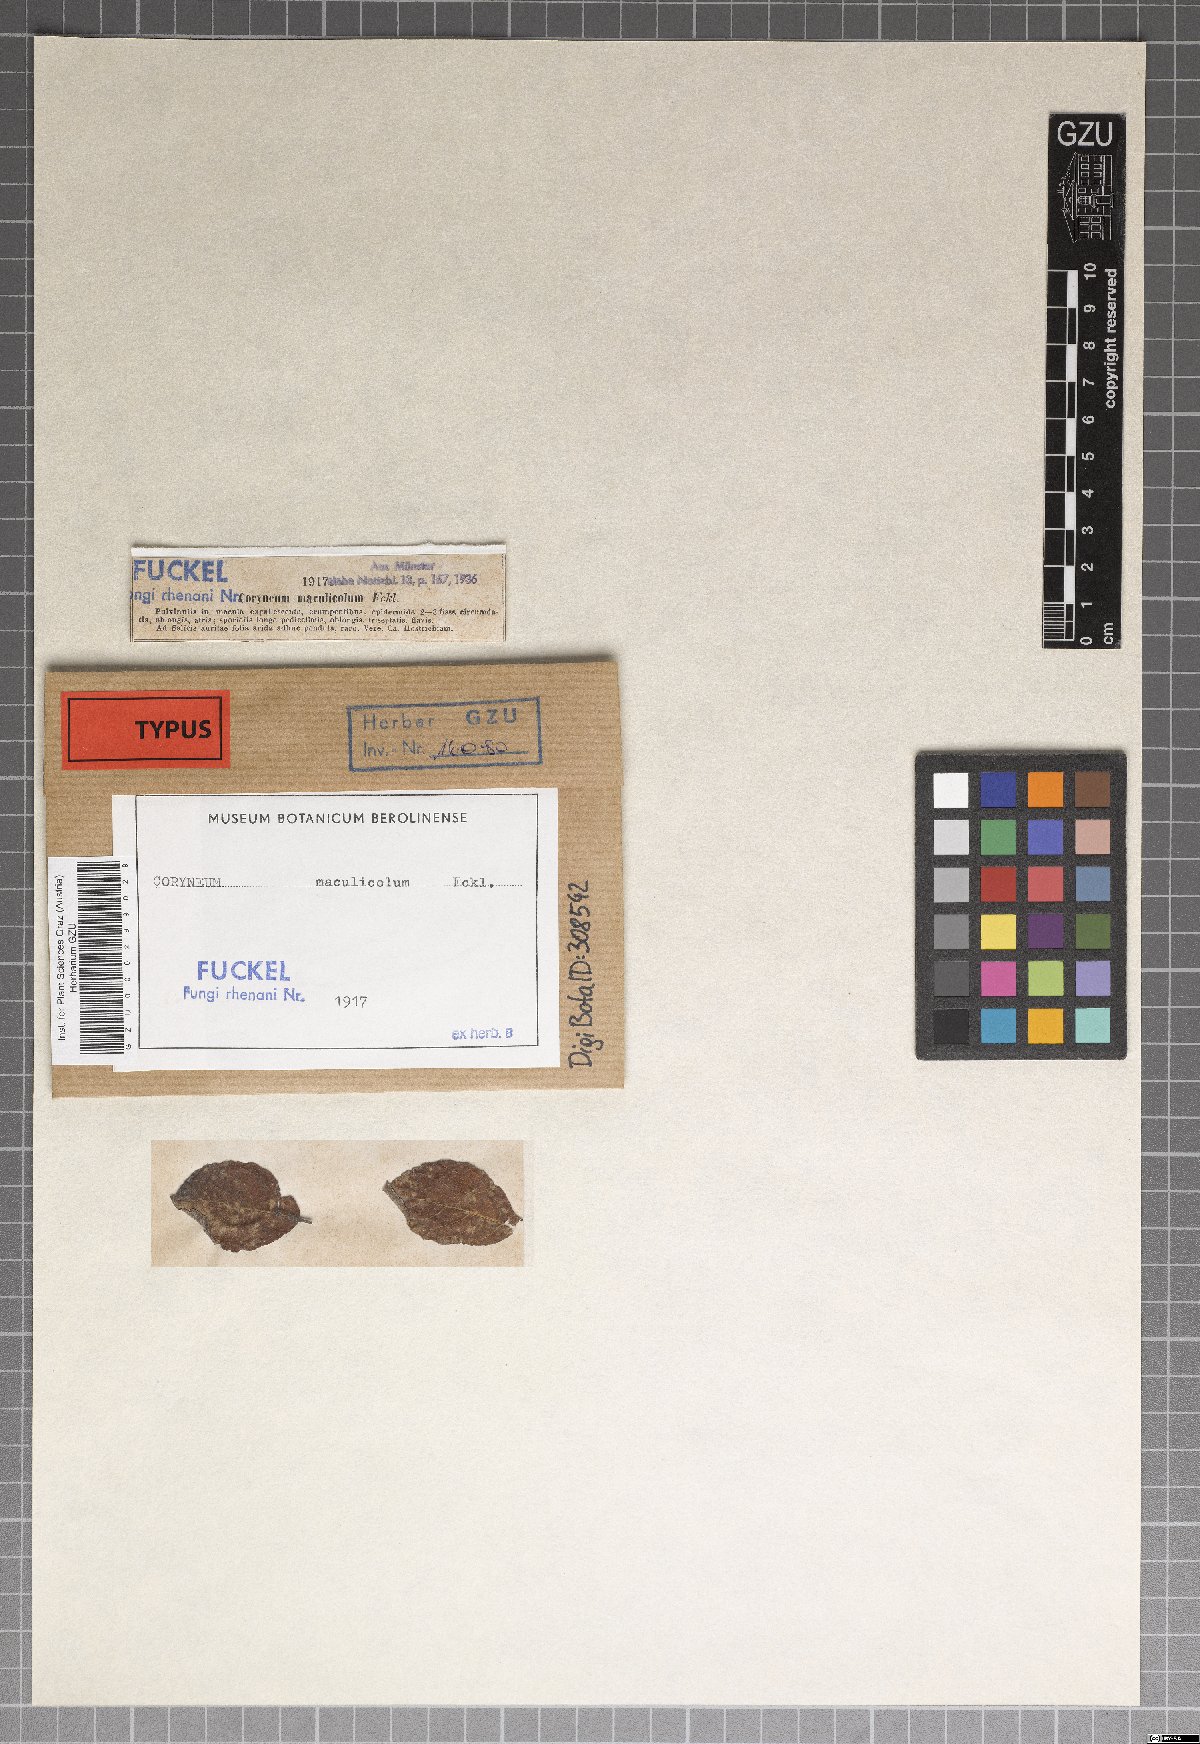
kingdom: Fungi
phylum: Ascomycota
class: Sordariomycetes
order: Diaporthales
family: Pseudovalsaceae
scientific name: Pseudovalsaceae
